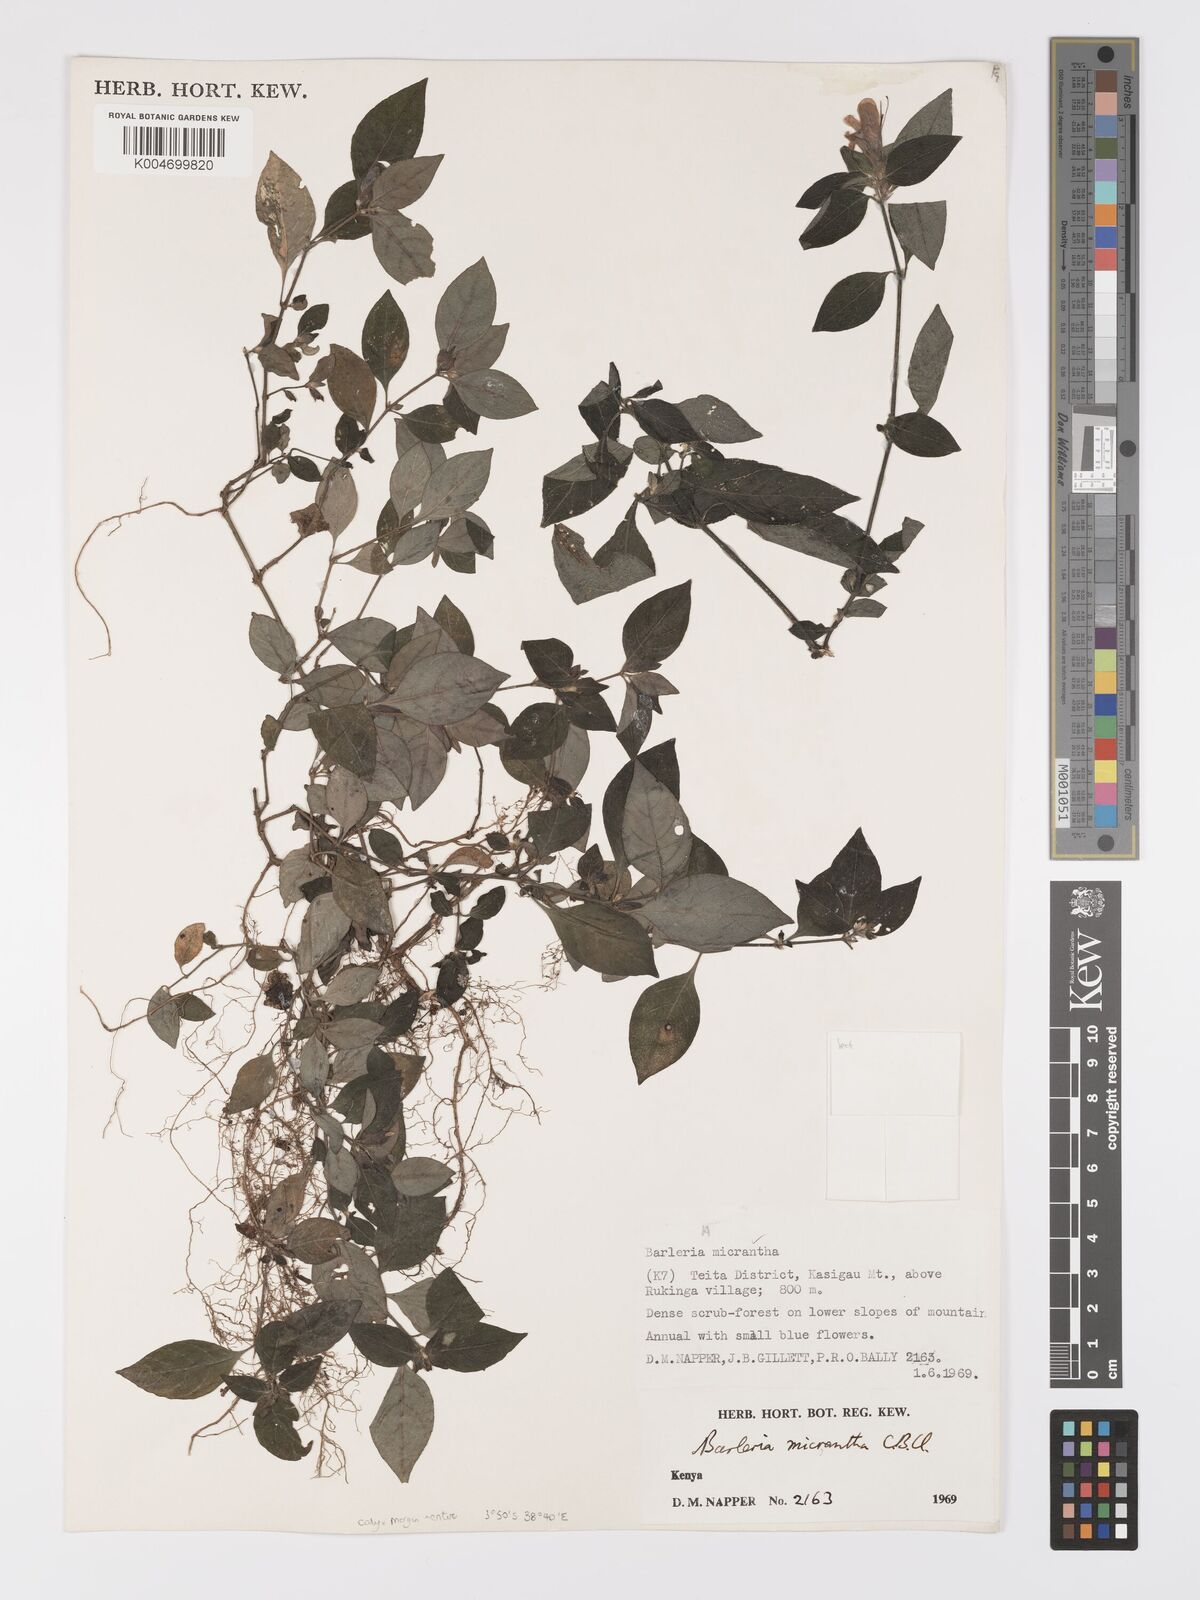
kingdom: Plantae
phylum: Tracheophyta
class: Magnoliopsida
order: Lamiales
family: Acanthaceae
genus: Barleria
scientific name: Barleria ventricosa
